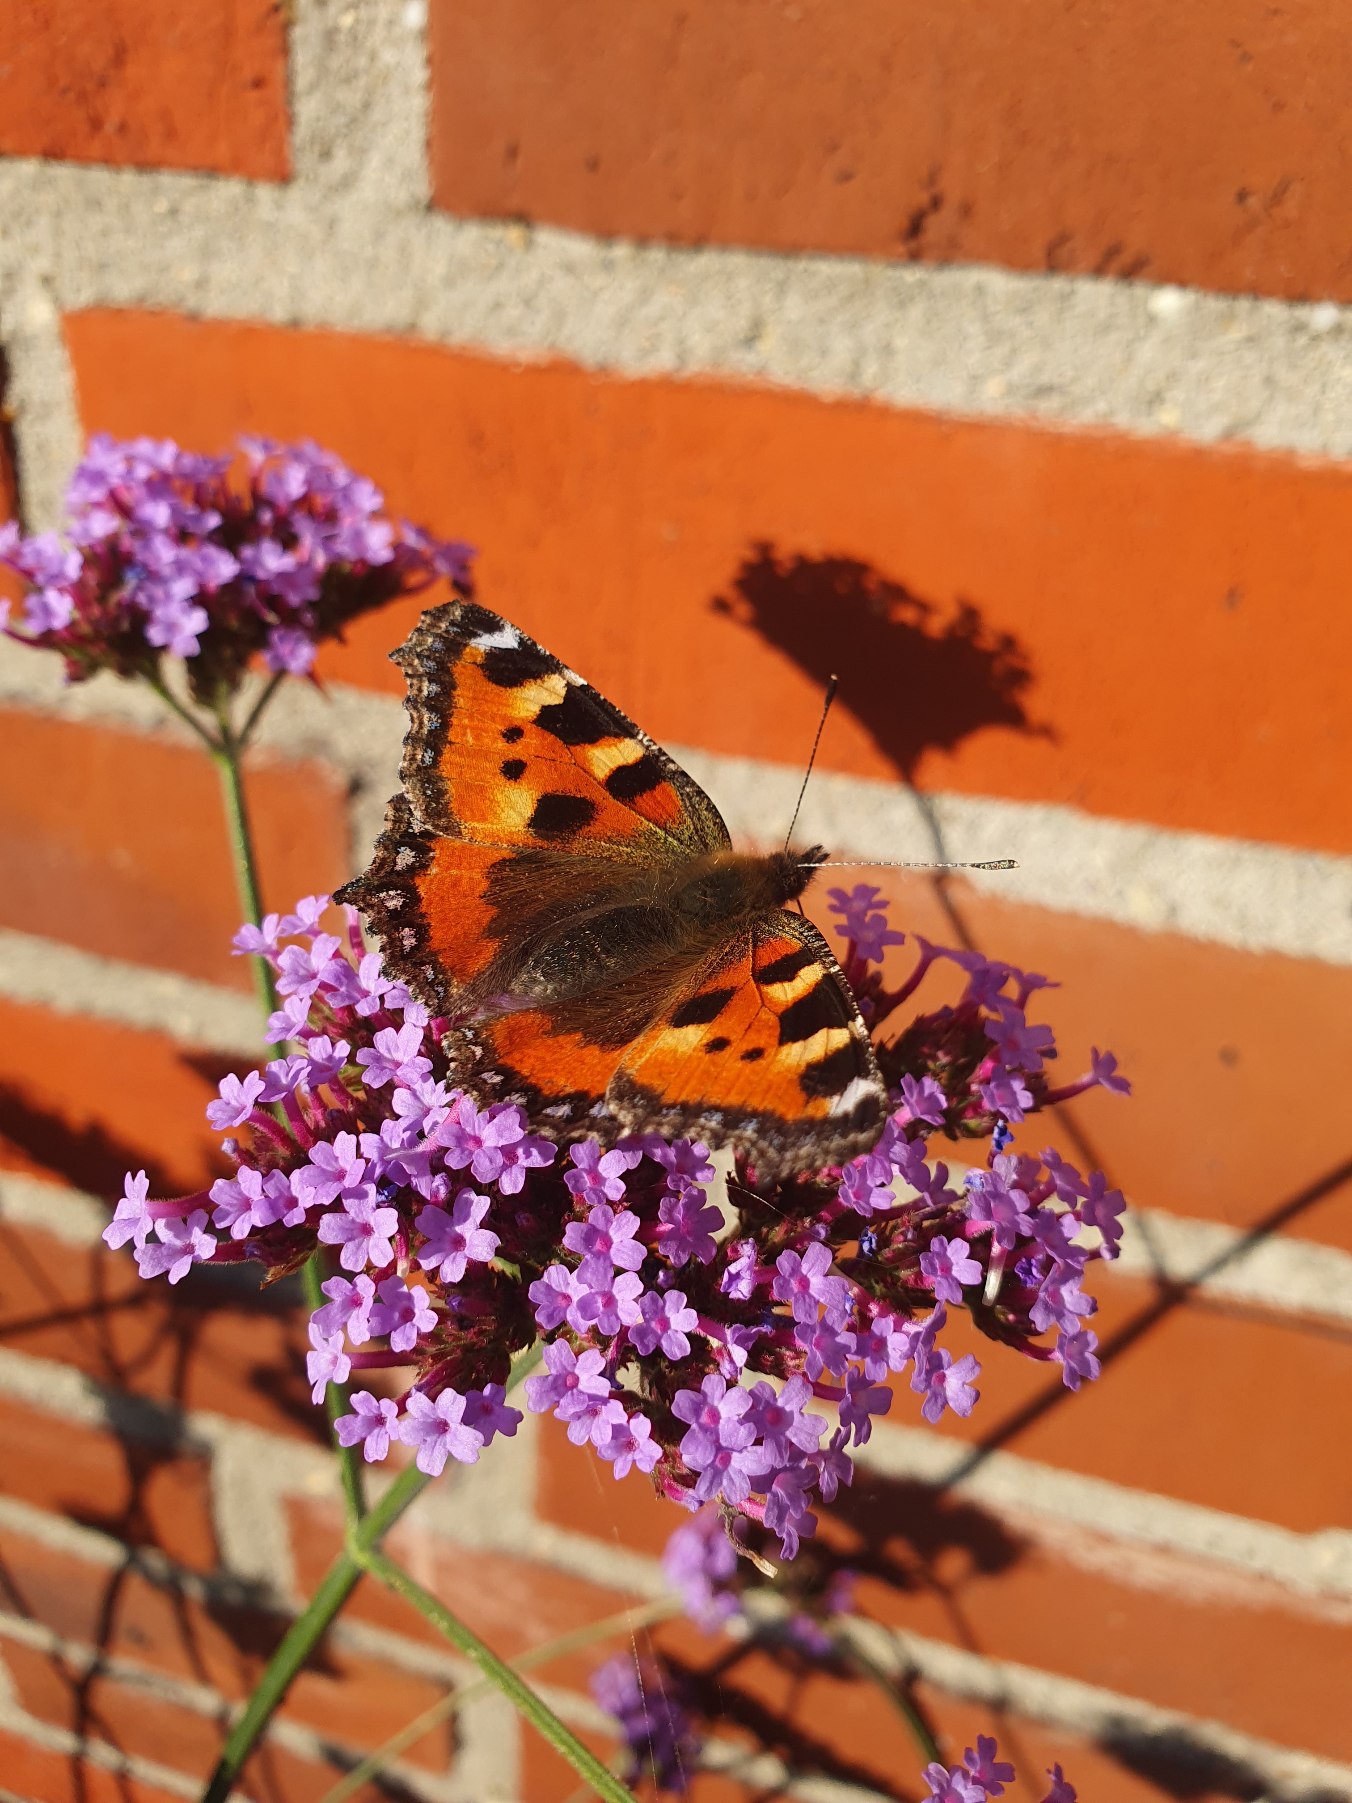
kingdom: Animalia
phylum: Arthropoda
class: Insecta
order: Lepidoptera
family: Nymphalidae
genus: Aglais
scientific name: Aglais urticae
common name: Nældens takvinge
